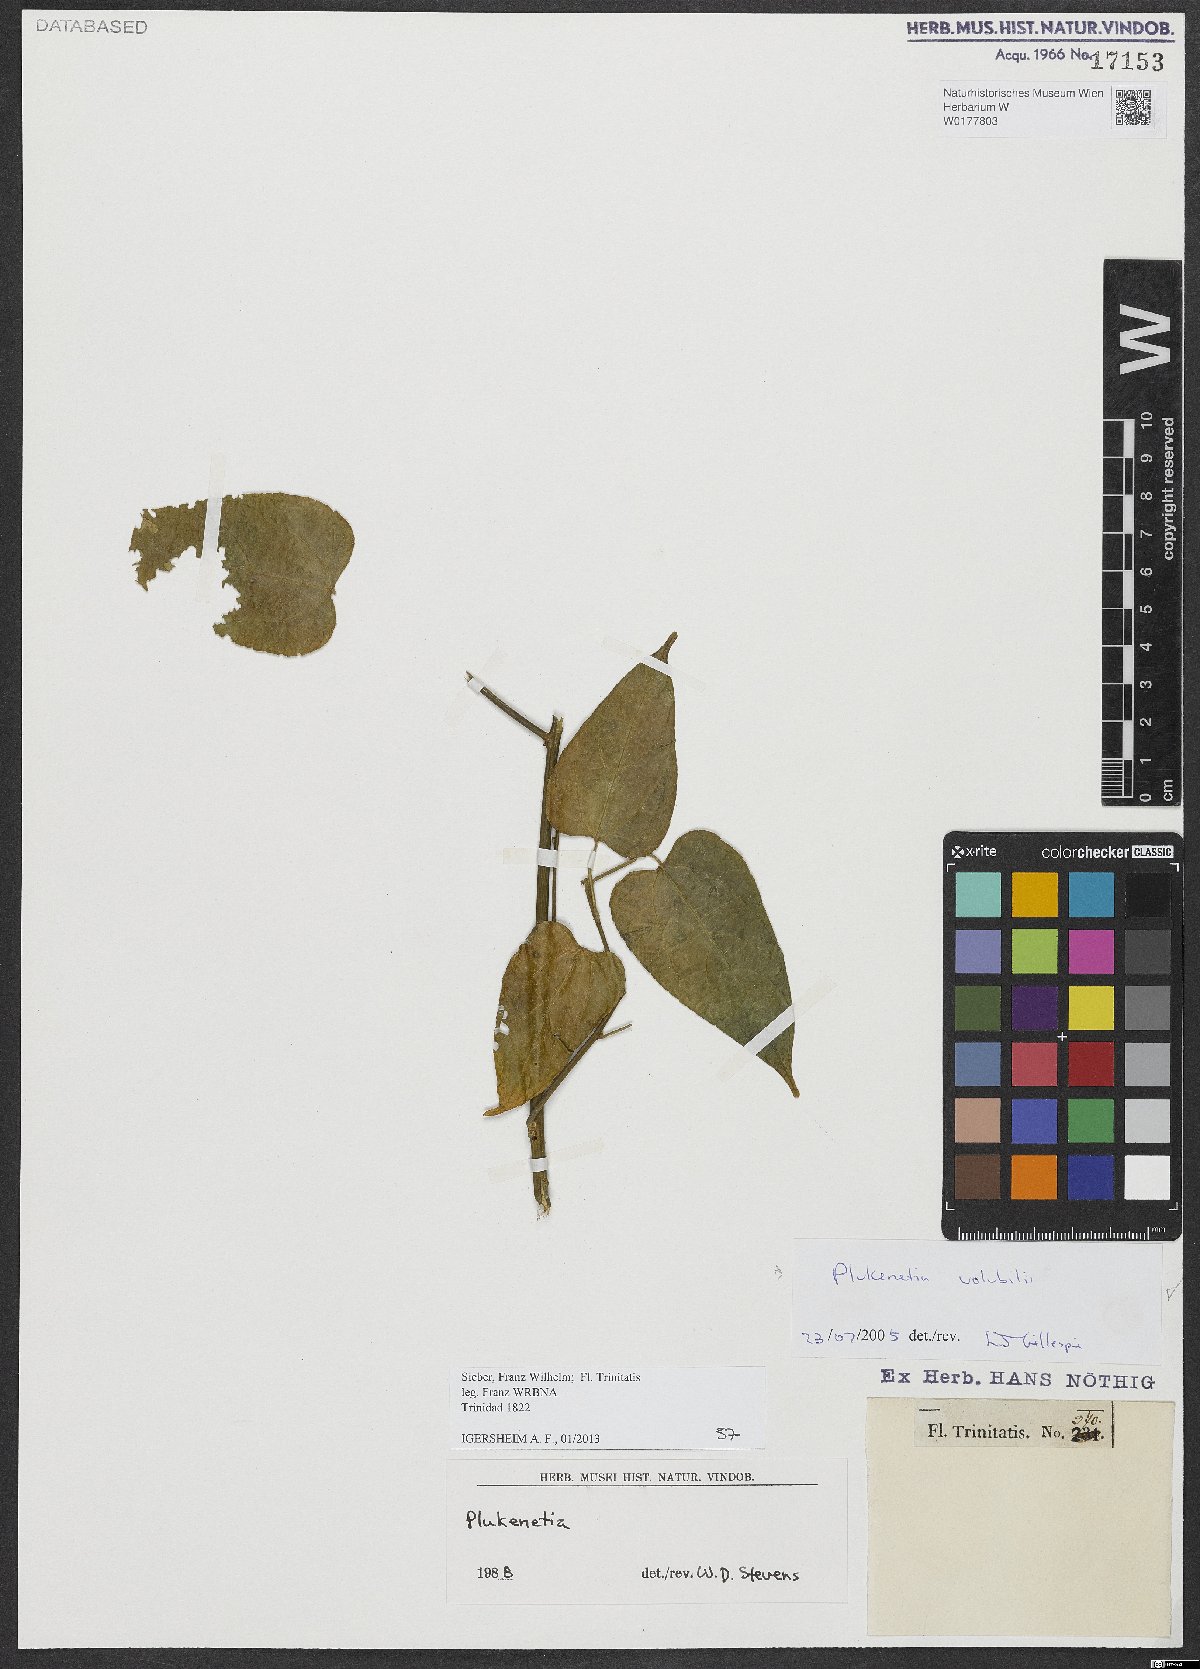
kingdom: Plantae
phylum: Tracheophyta
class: Magnoliopsida
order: Malpighiales
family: Euphorbiaceae
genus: Plukenetia
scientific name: Plukenetia volubilis
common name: Inca-peanut
